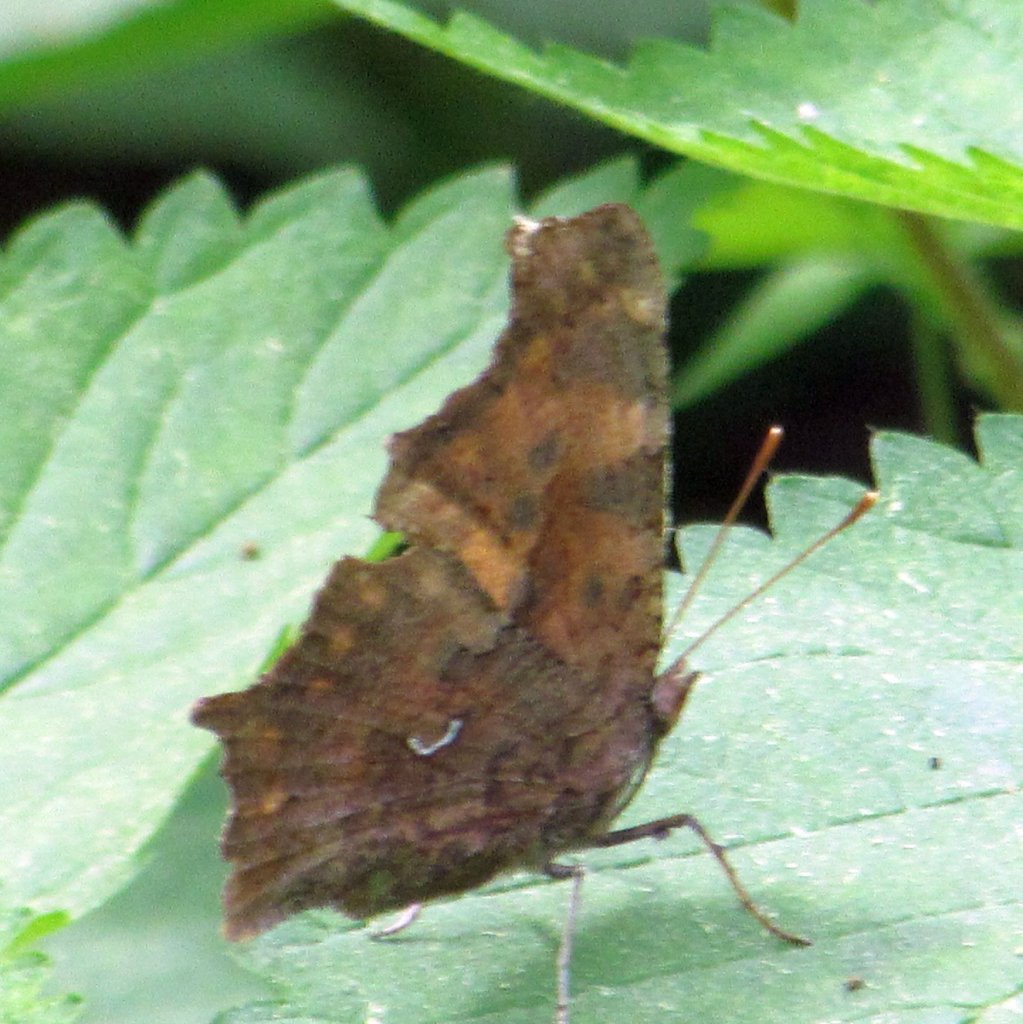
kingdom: Animalia
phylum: Arthropoda
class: Insecta
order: Lepidoptera
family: Nymphalidae
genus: Polygonia
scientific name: Polygonia comma
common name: Eastern Comma
